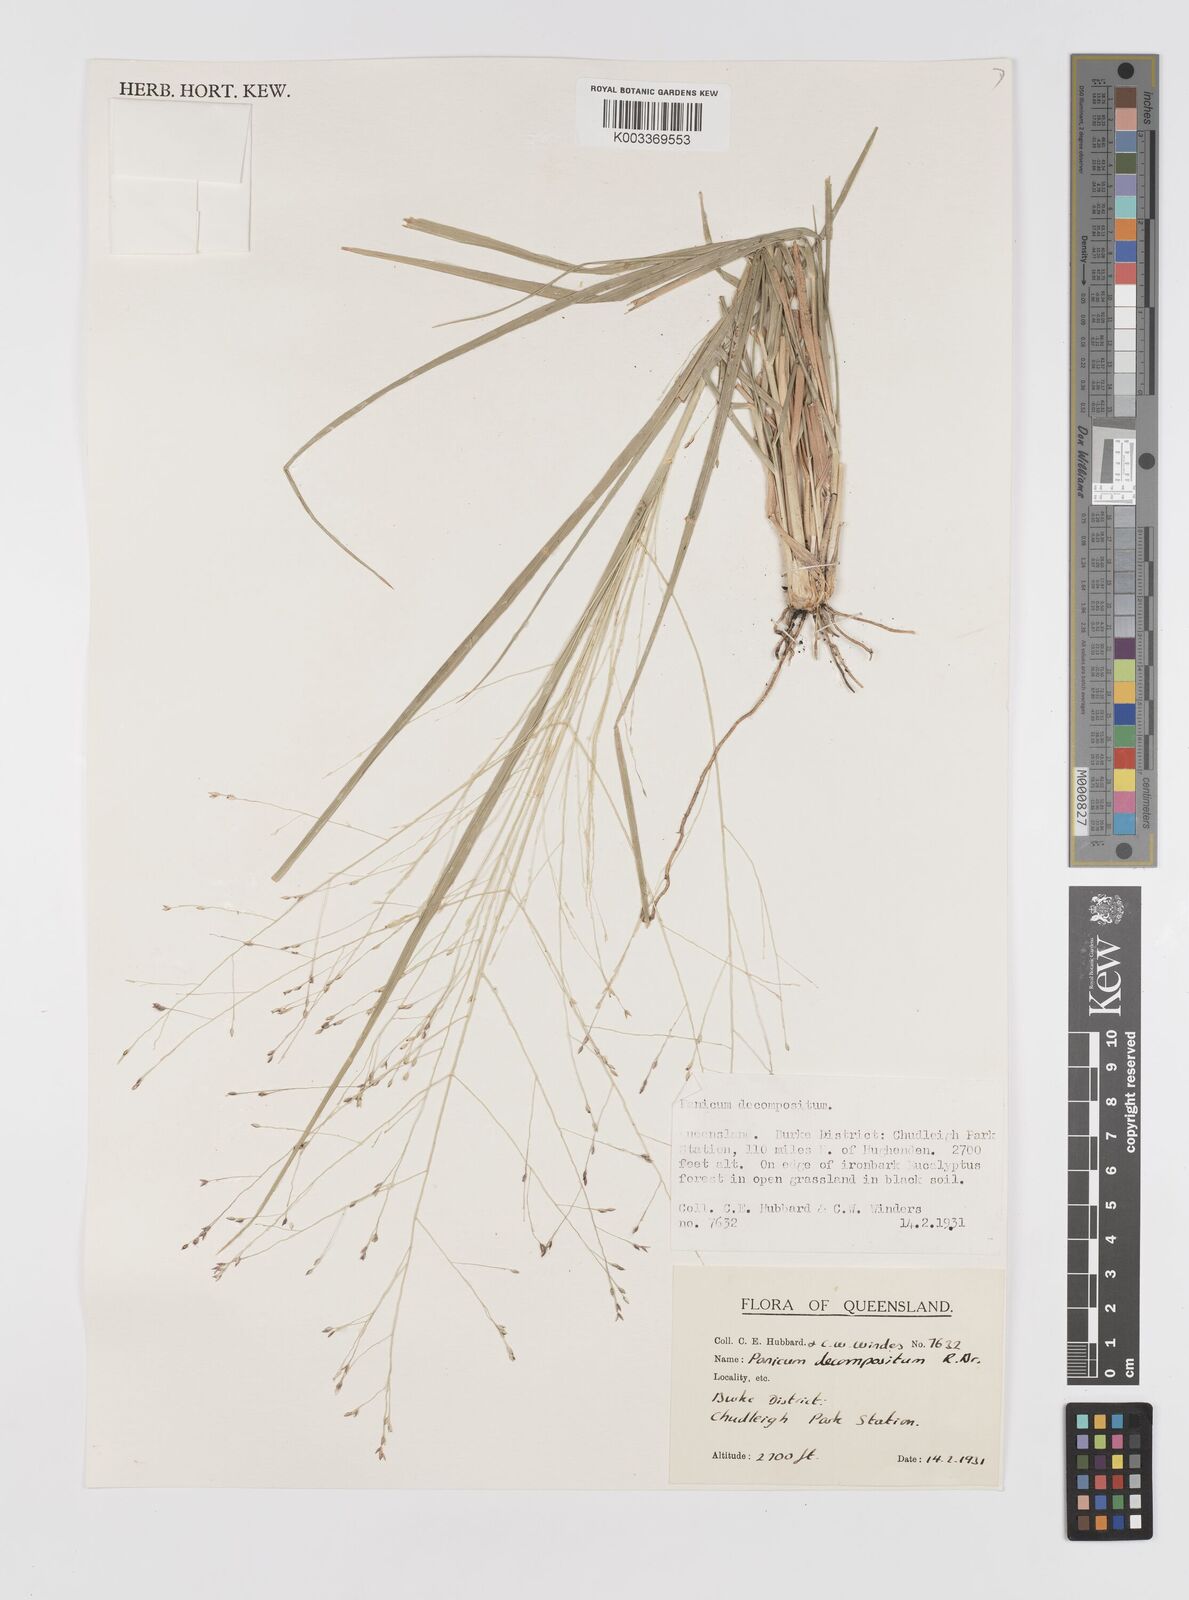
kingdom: Plantae
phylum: Tracheophyta
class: Liliopsida
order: Poales
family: Poaceae
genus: Panicum
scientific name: Panicum decompositum
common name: Australian millet
